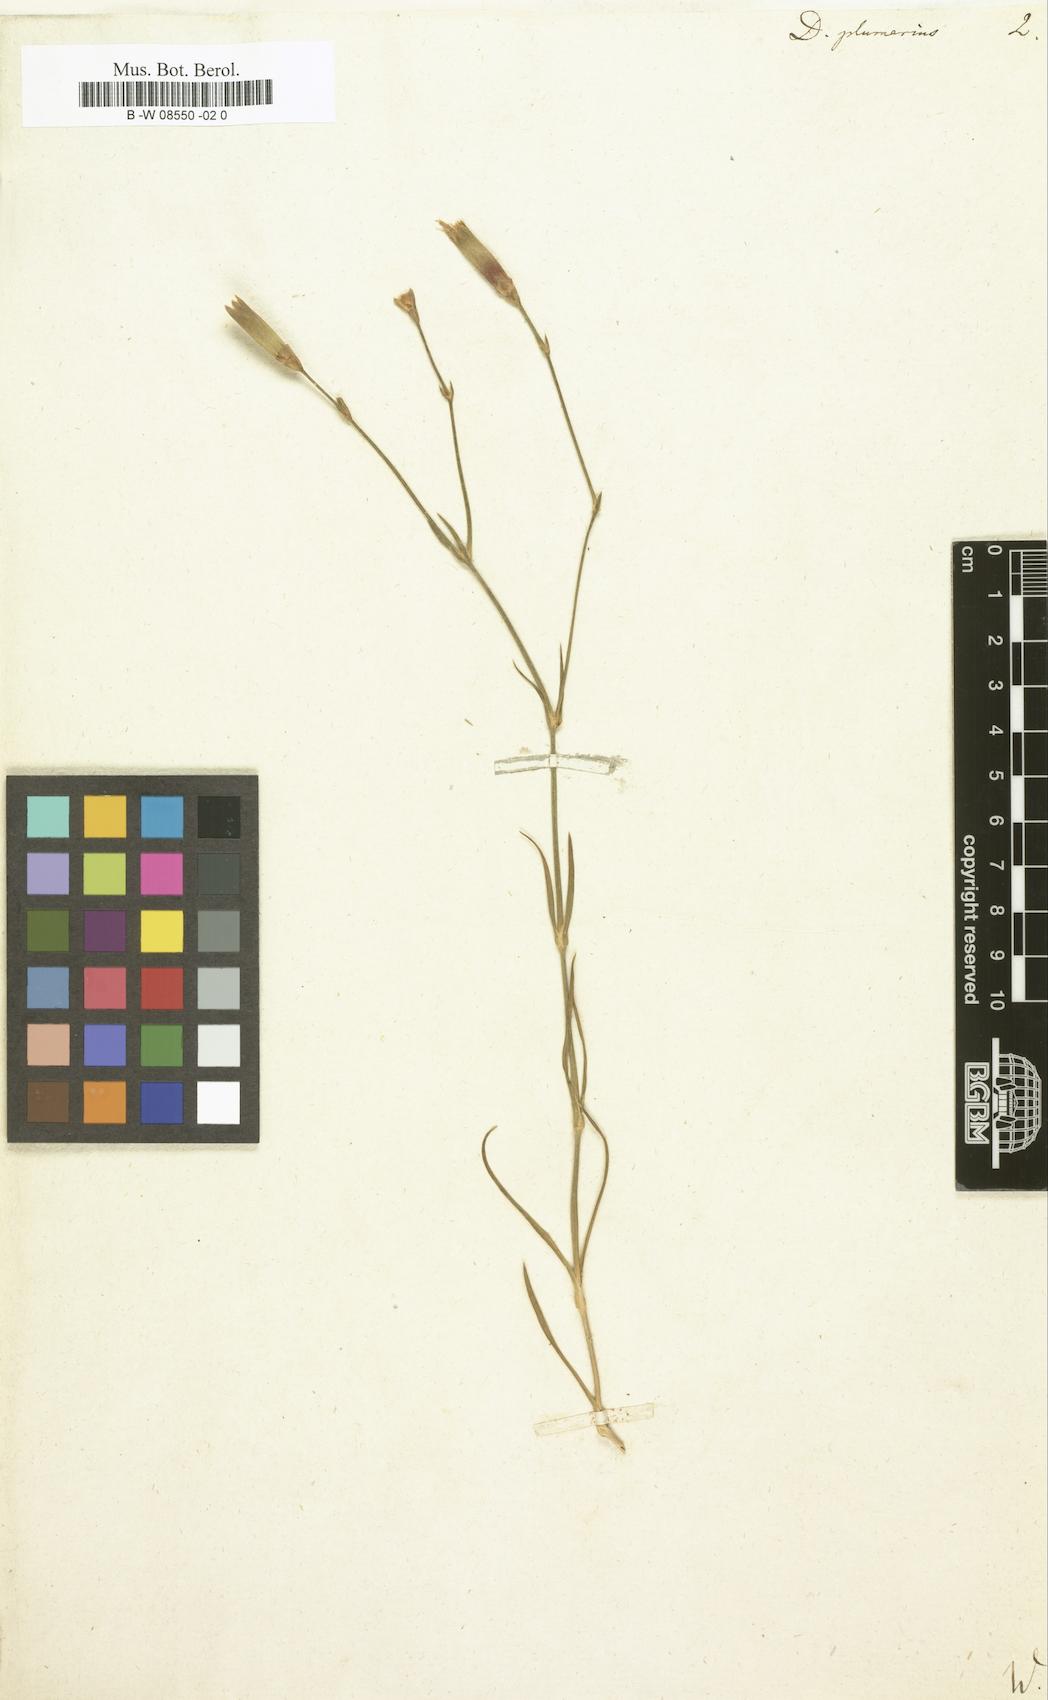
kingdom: Plantae
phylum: Tracheophyta
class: Magnoliopsida
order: Caryophyllales
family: Caryophyllaceae
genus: Dianthus
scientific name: Dianthus plumarius
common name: Pink
